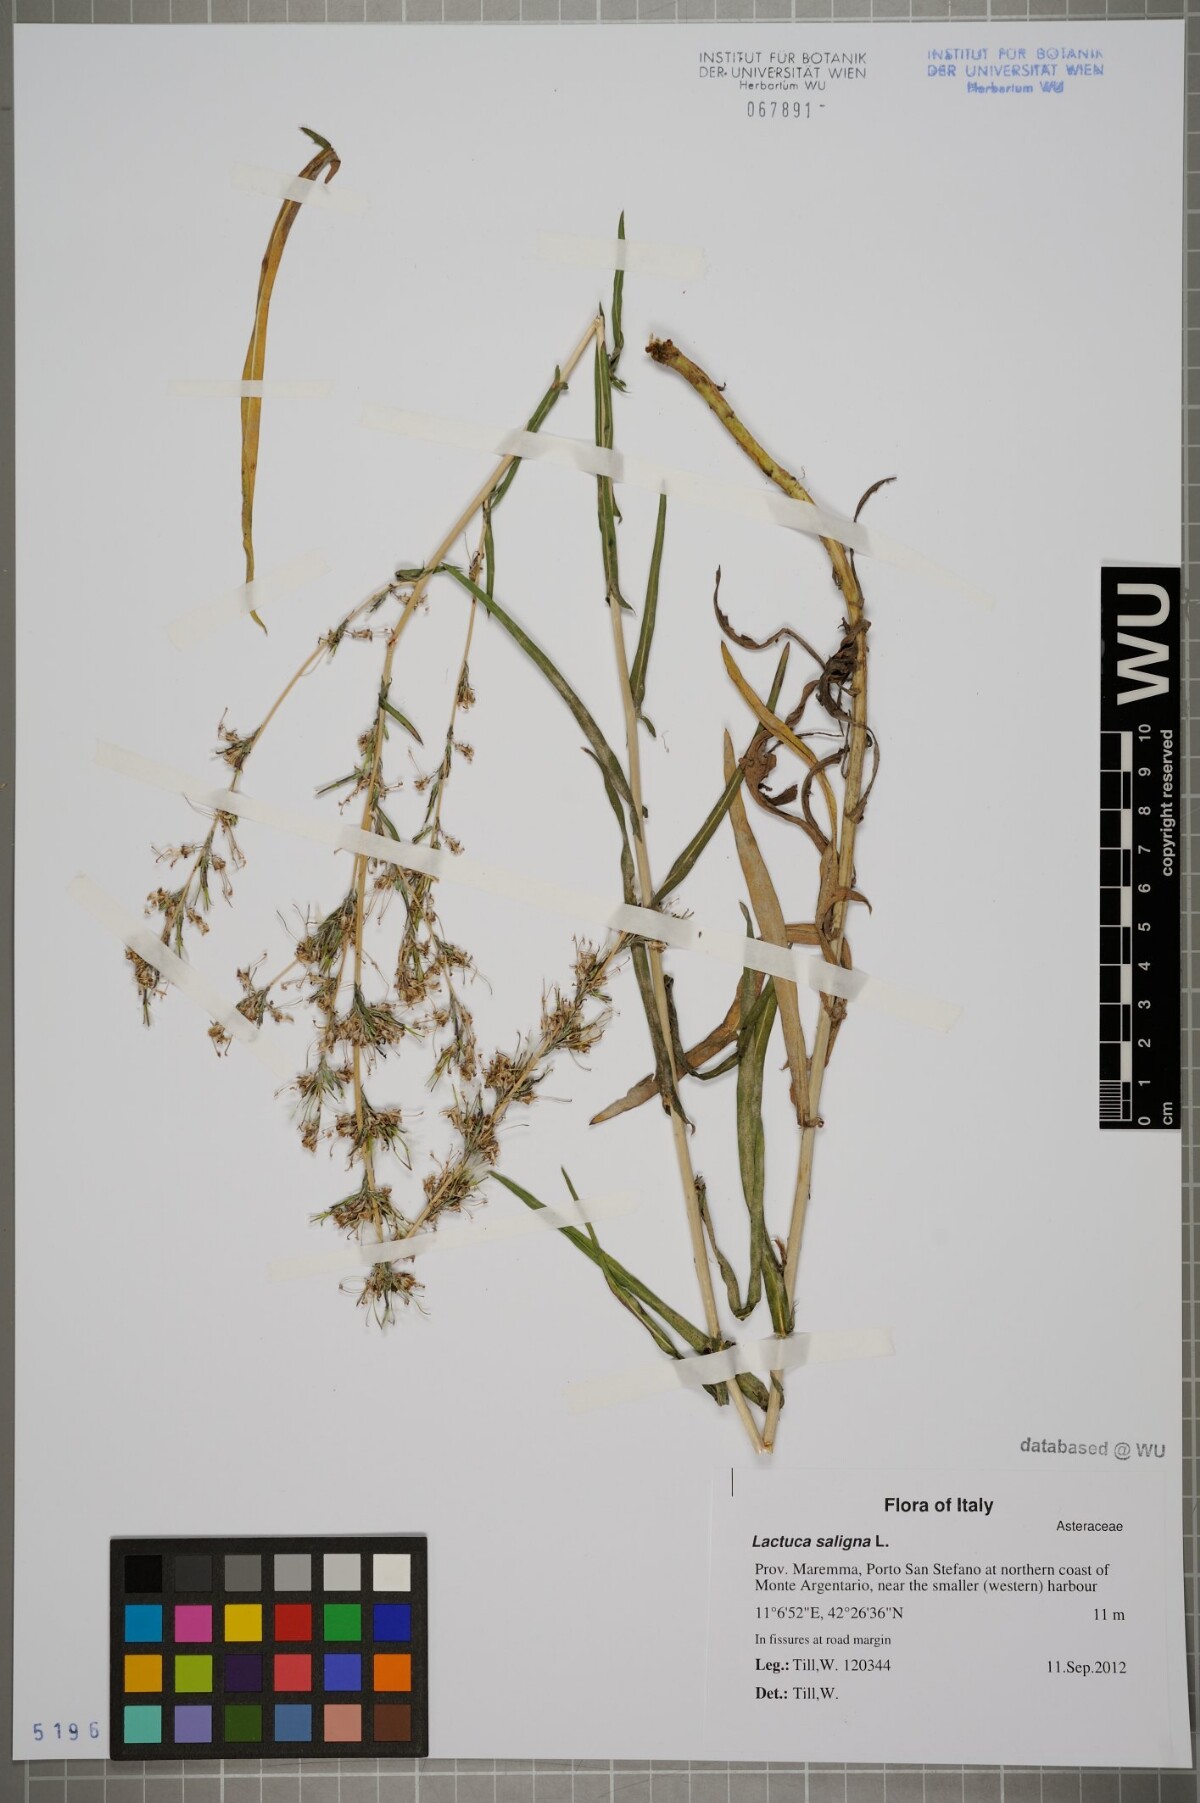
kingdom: Plantae
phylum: Tracheophyta
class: Magnoliopsida
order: Asterales
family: Asteraceae
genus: Lactuca
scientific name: Lactuca saligna
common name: Wild lettuce
